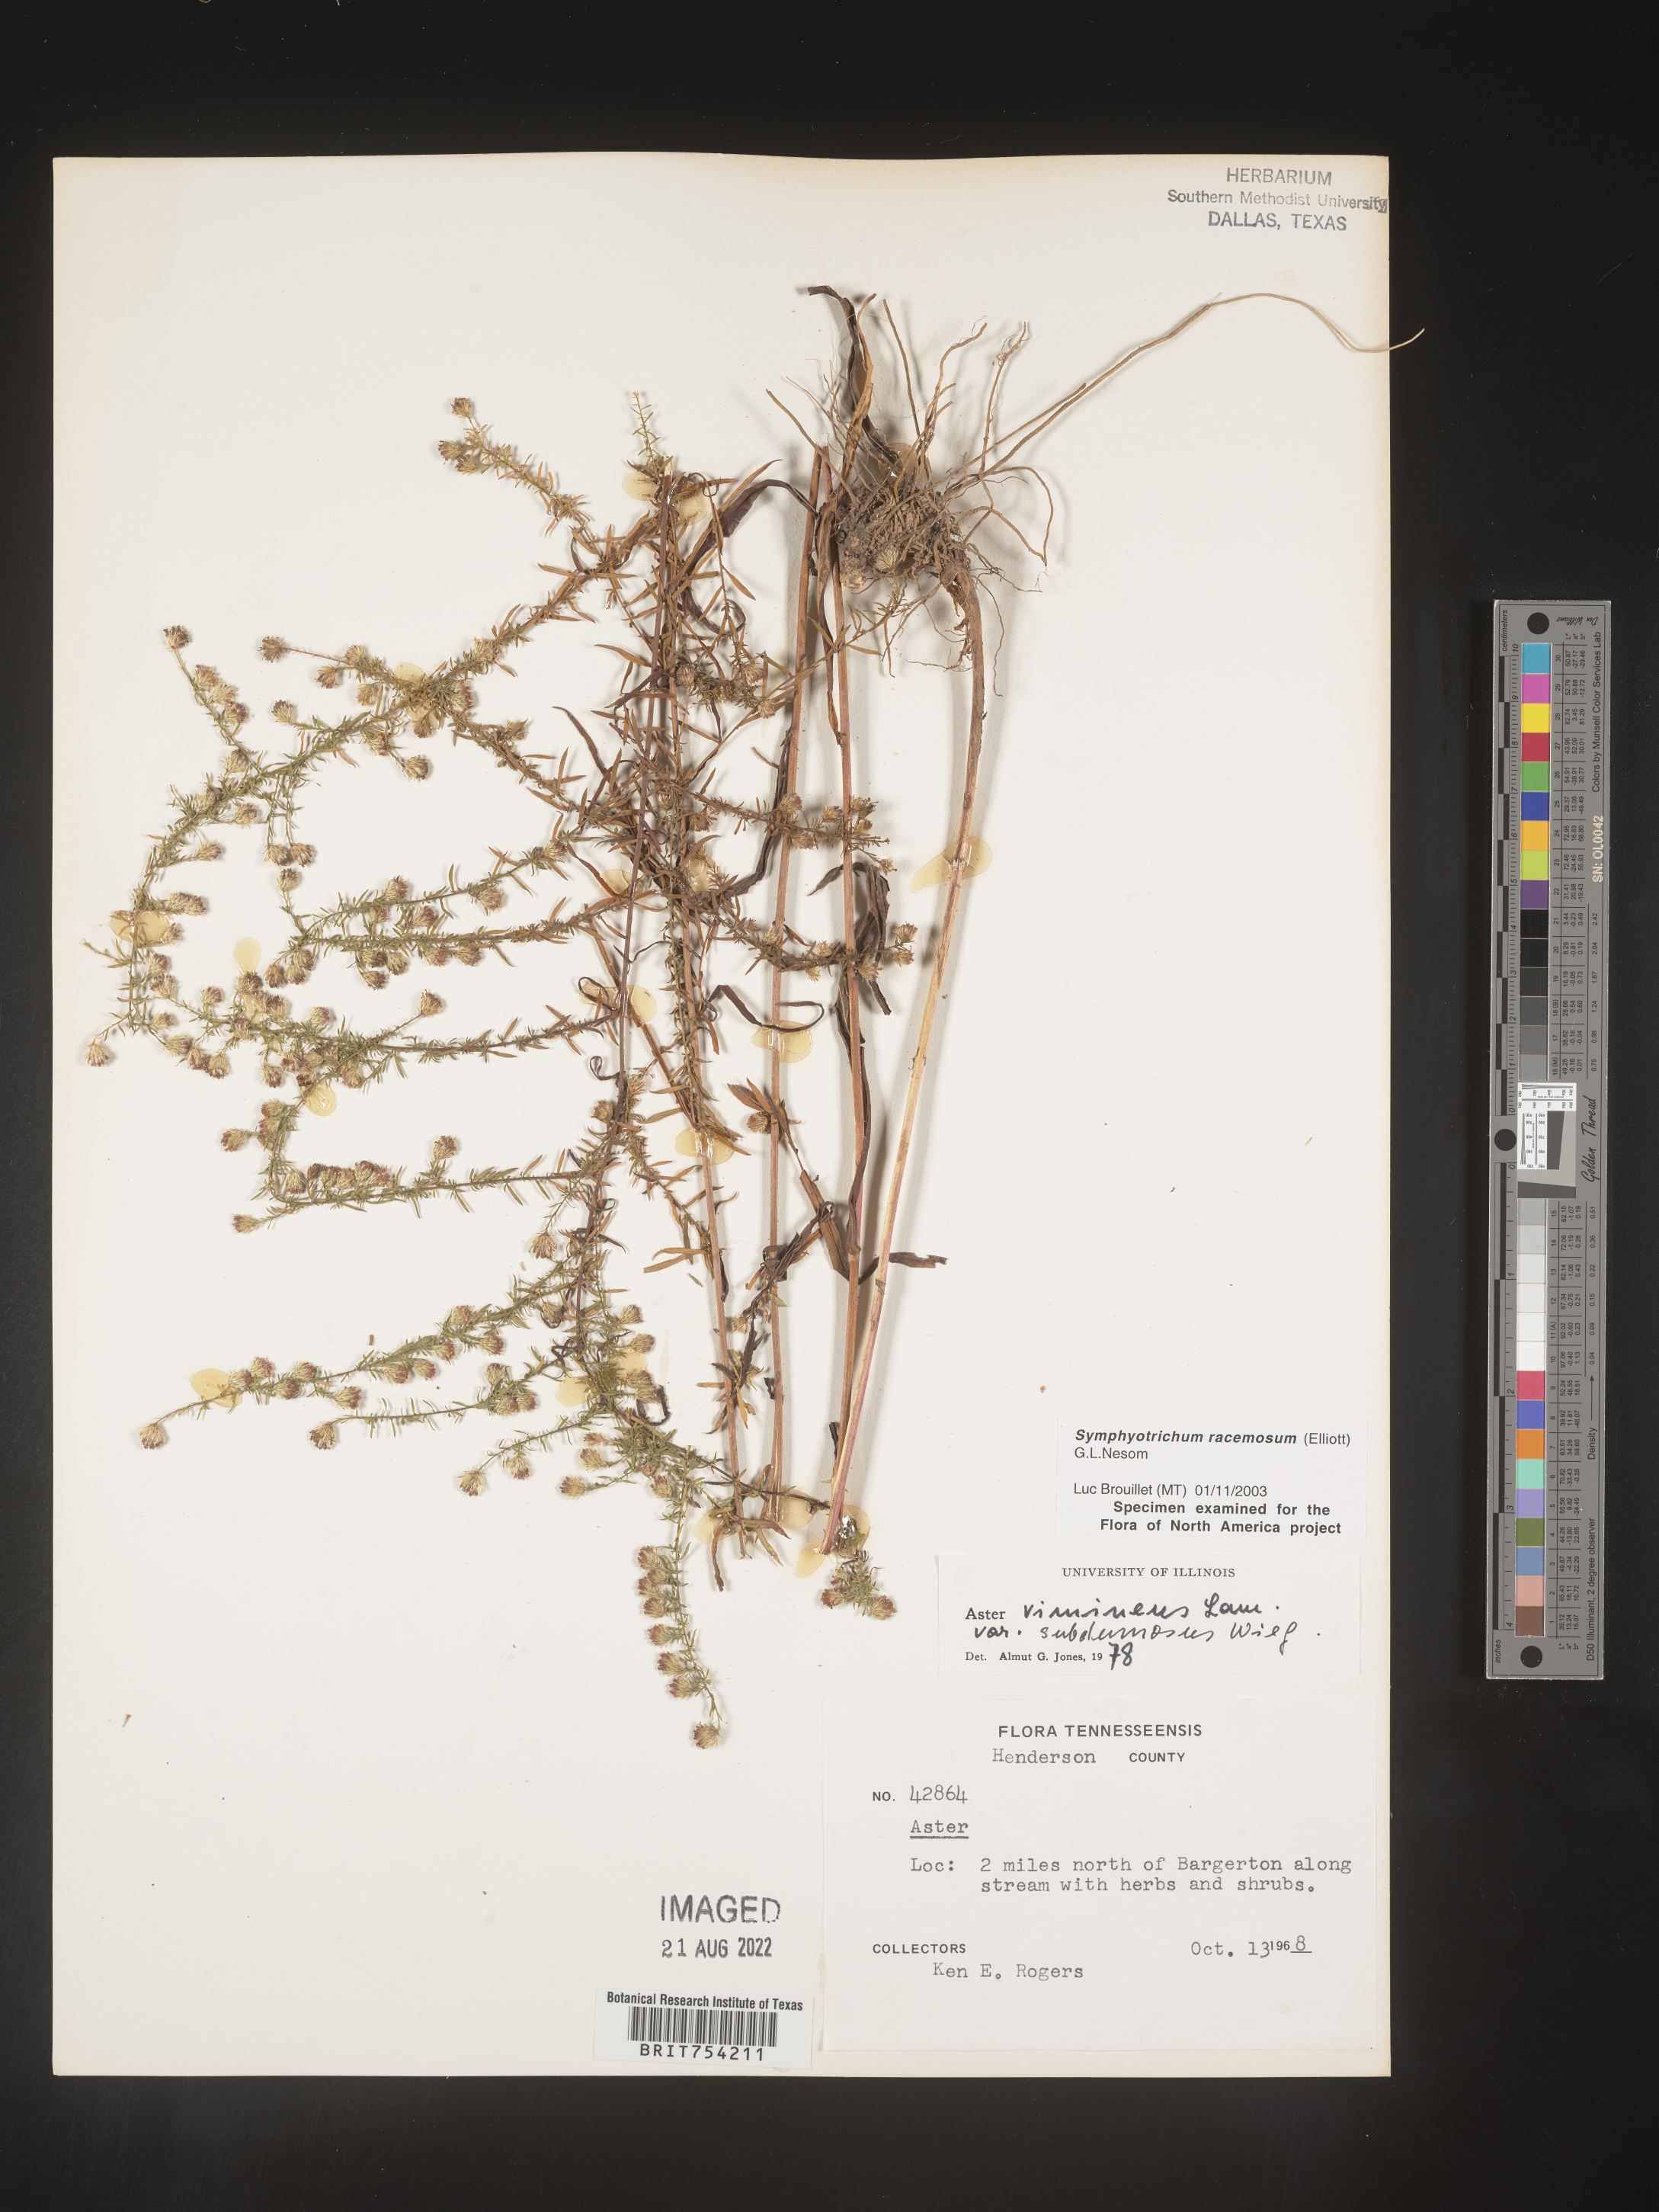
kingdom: Plantae
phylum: Tracheophyta
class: Magnoliopsida
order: Asterales
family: Asteraceae
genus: Symphyotrichum
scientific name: Symphyotrichum racemosum
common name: Small white aster
